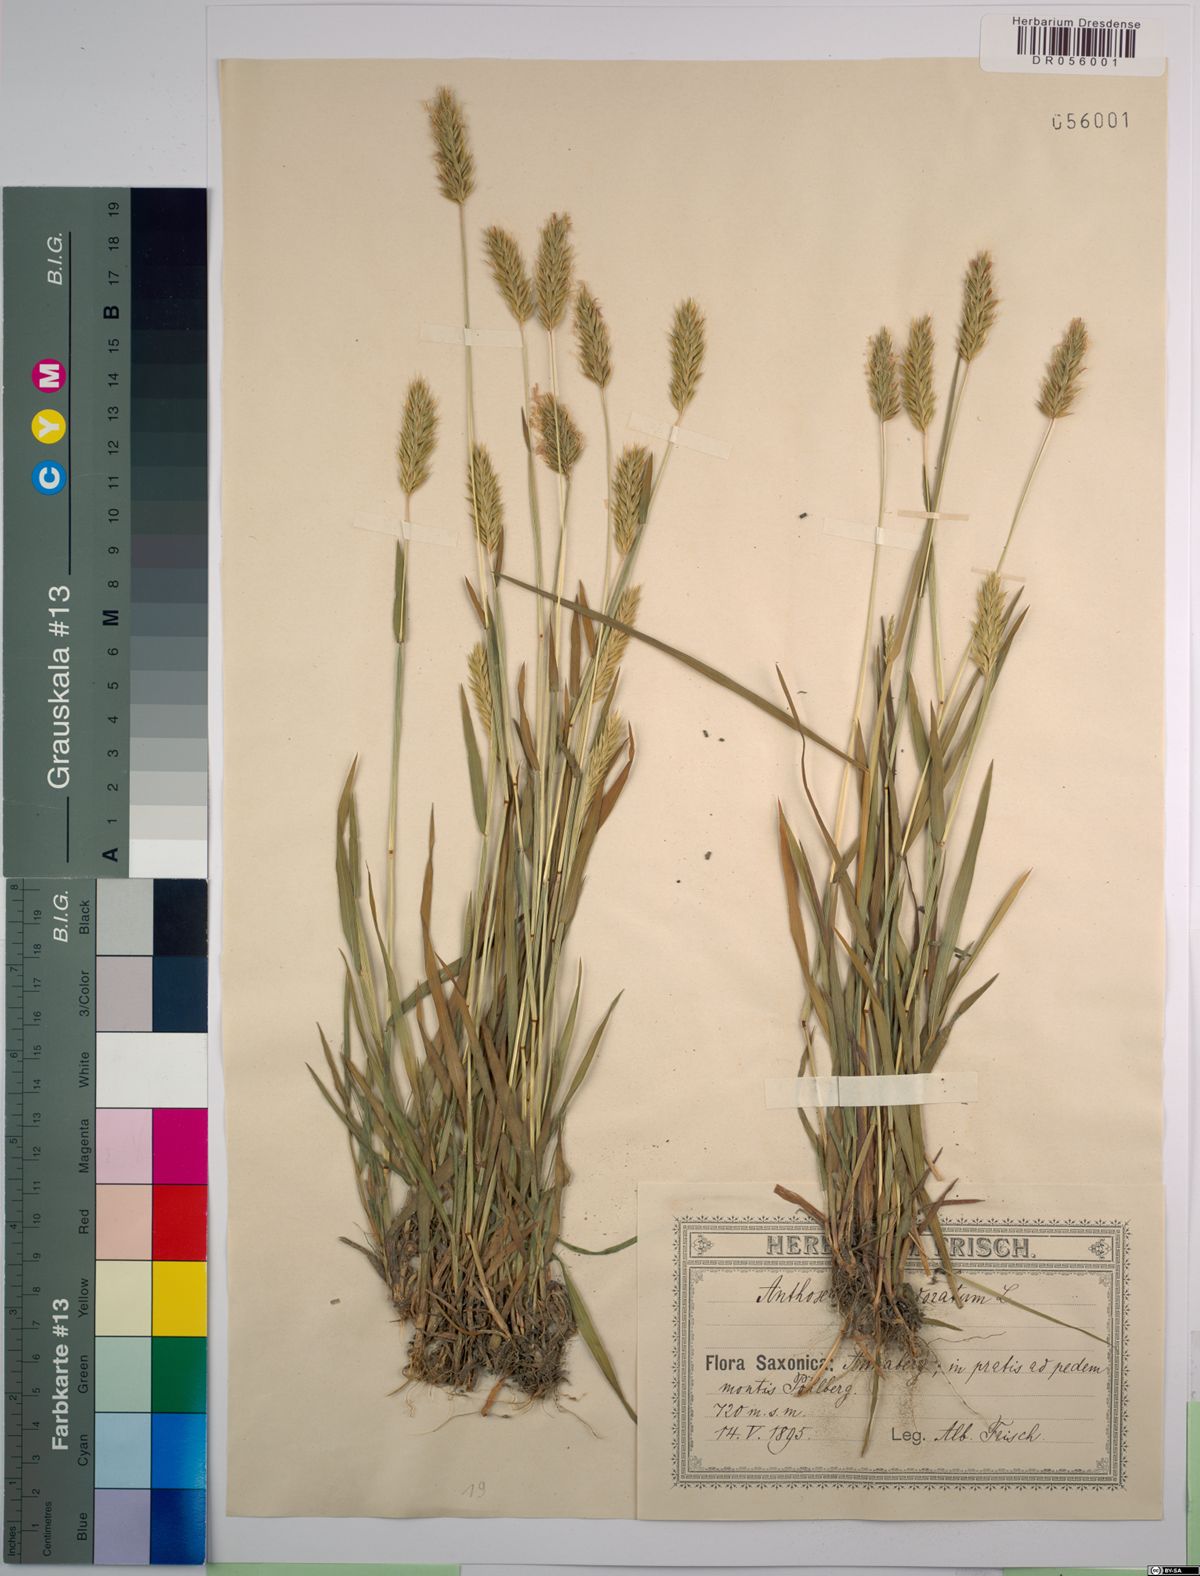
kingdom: Plantae
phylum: Tracheophyta
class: Liliopsida
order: Poales
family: Poaceae
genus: Anthoxanthum
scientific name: Anthoxanthum odoratum
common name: Sweet vernalgrass
